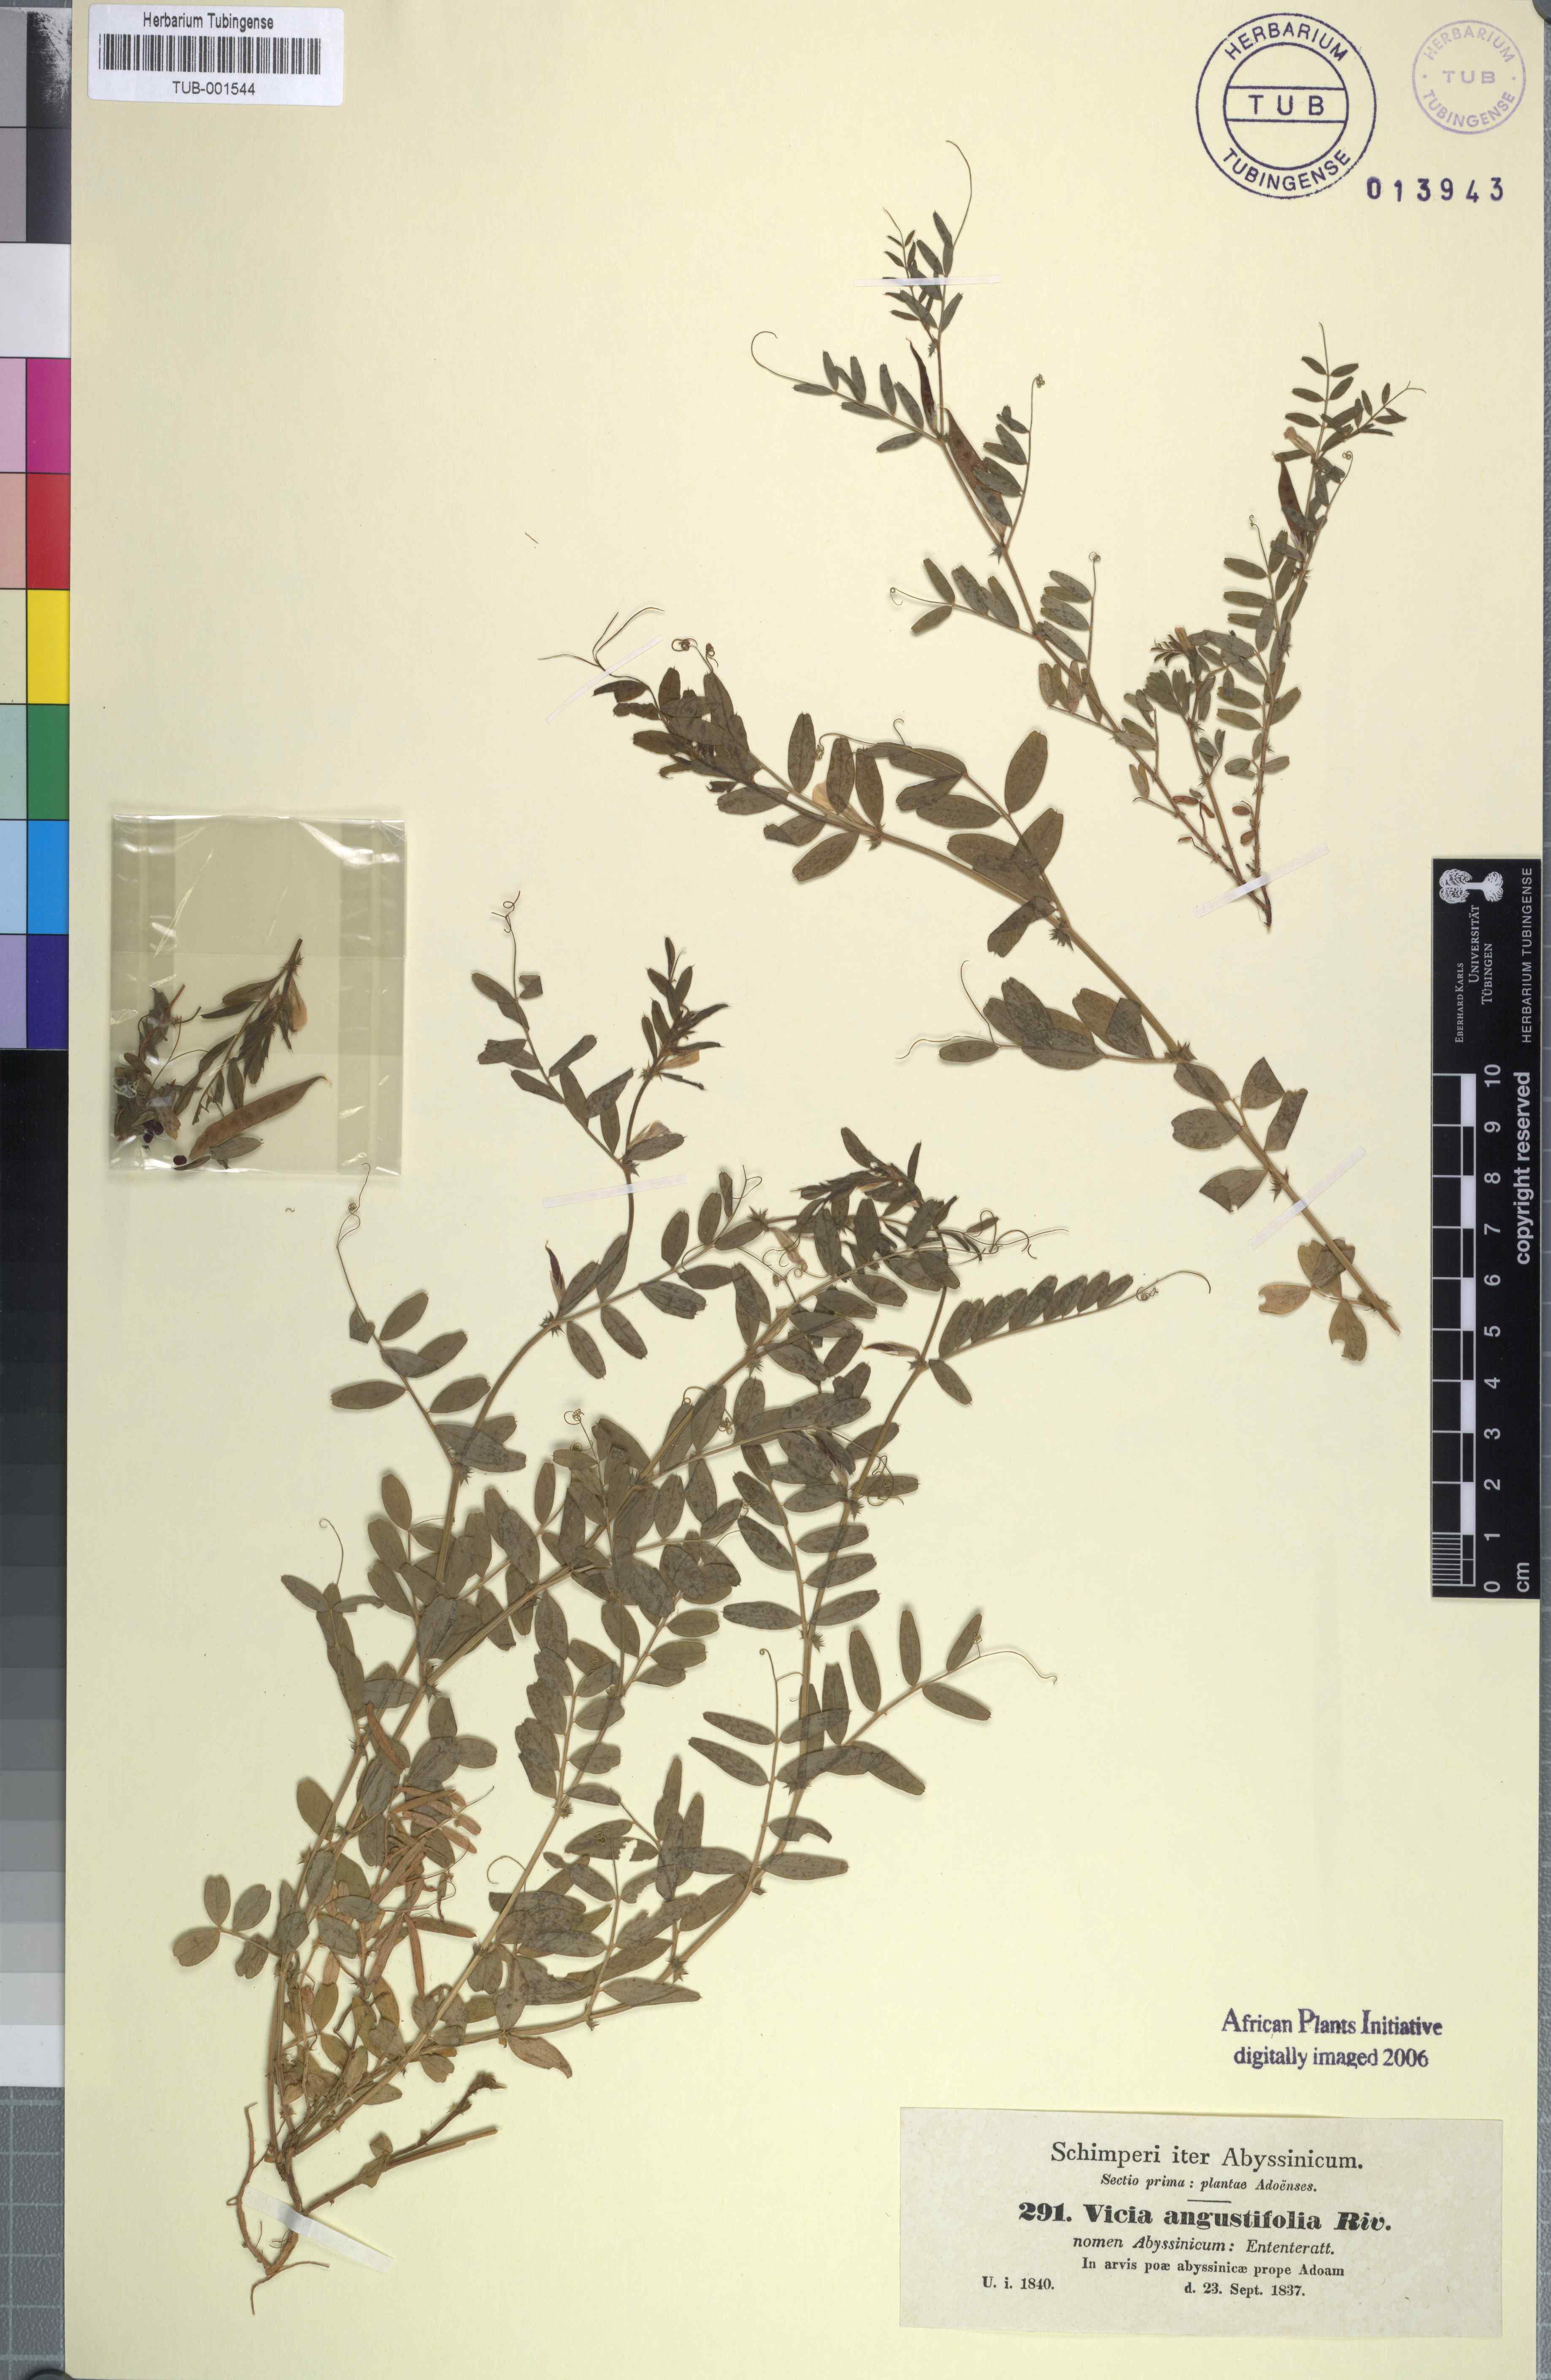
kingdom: Plantae
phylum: Tracheophyta
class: Magnoliopsida
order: Fabales
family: Fabaceae
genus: Vicia
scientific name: Vicia sativa
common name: Garden vetch
